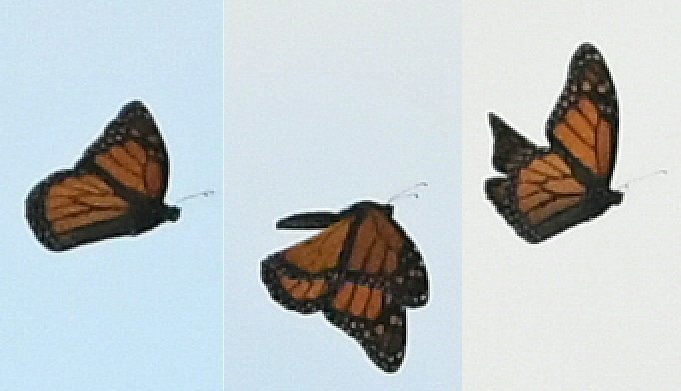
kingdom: Animalia
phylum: Arthropoda
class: Insecta
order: Lepidoptera
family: Nymphalidae
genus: Danaus
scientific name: Danaus plexippus
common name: Monarch
